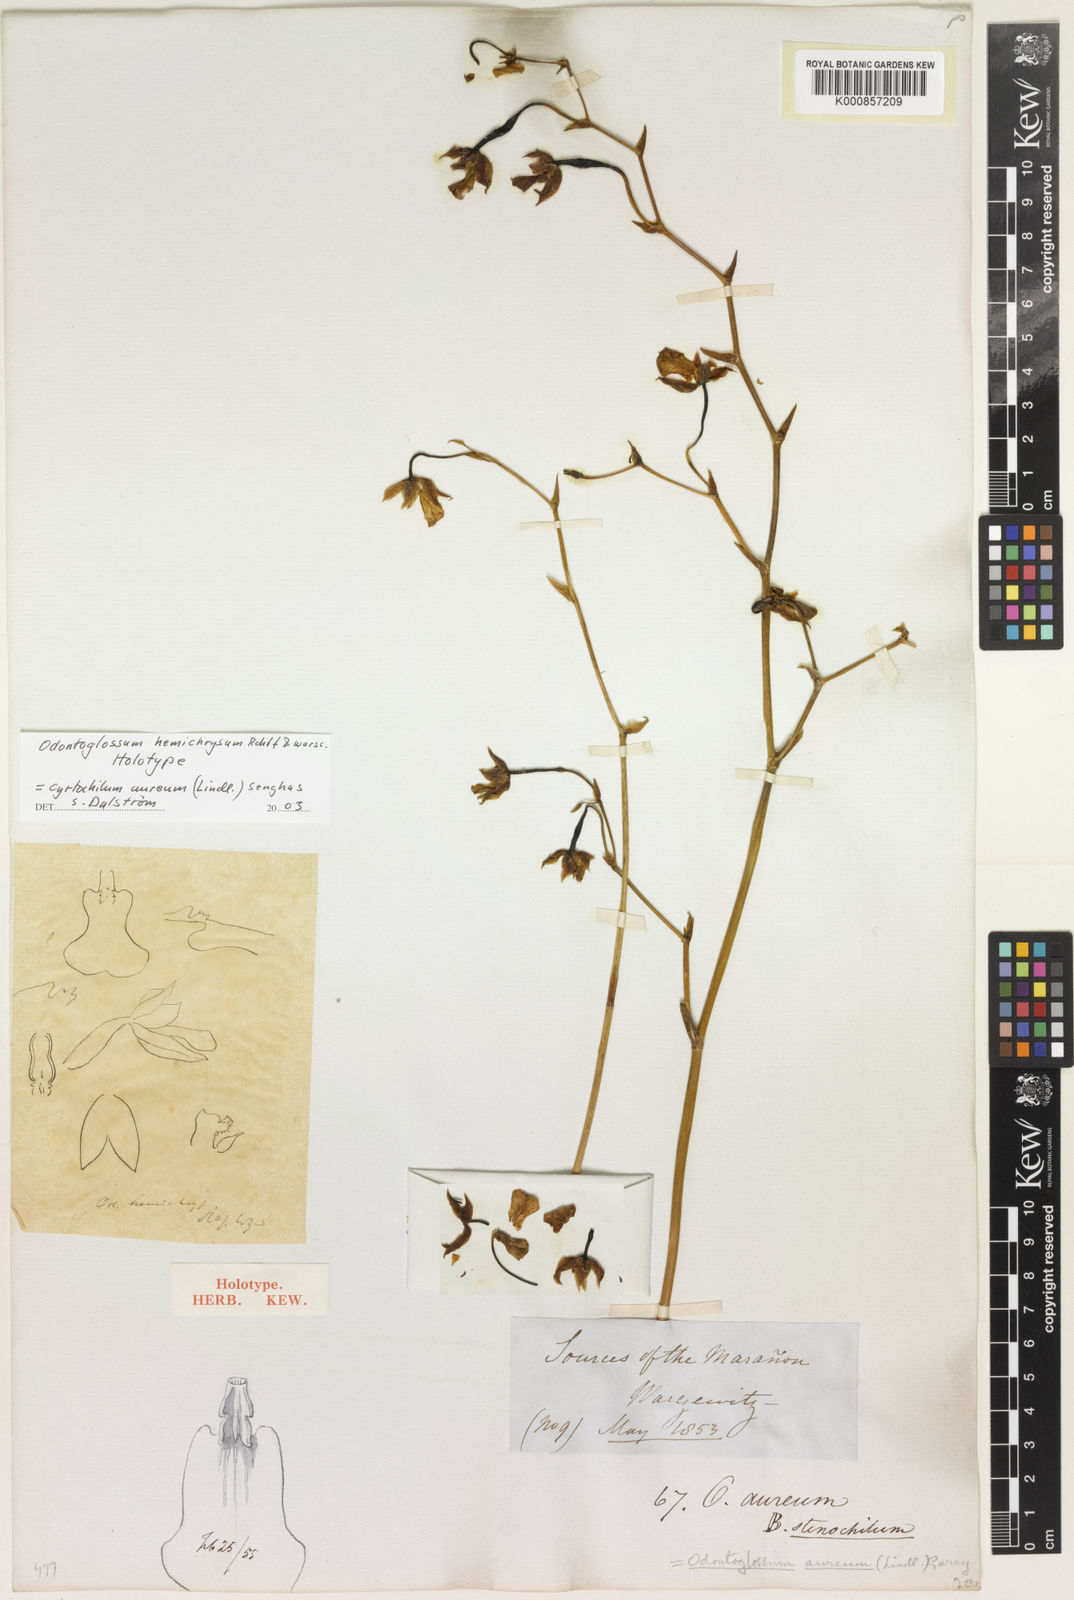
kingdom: Plantae
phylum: Tracheophyta
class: Liliopsida
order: Asparagales
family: Orchidaceae
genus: Cyrtochilum
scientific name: Cyrtochilum aureum
